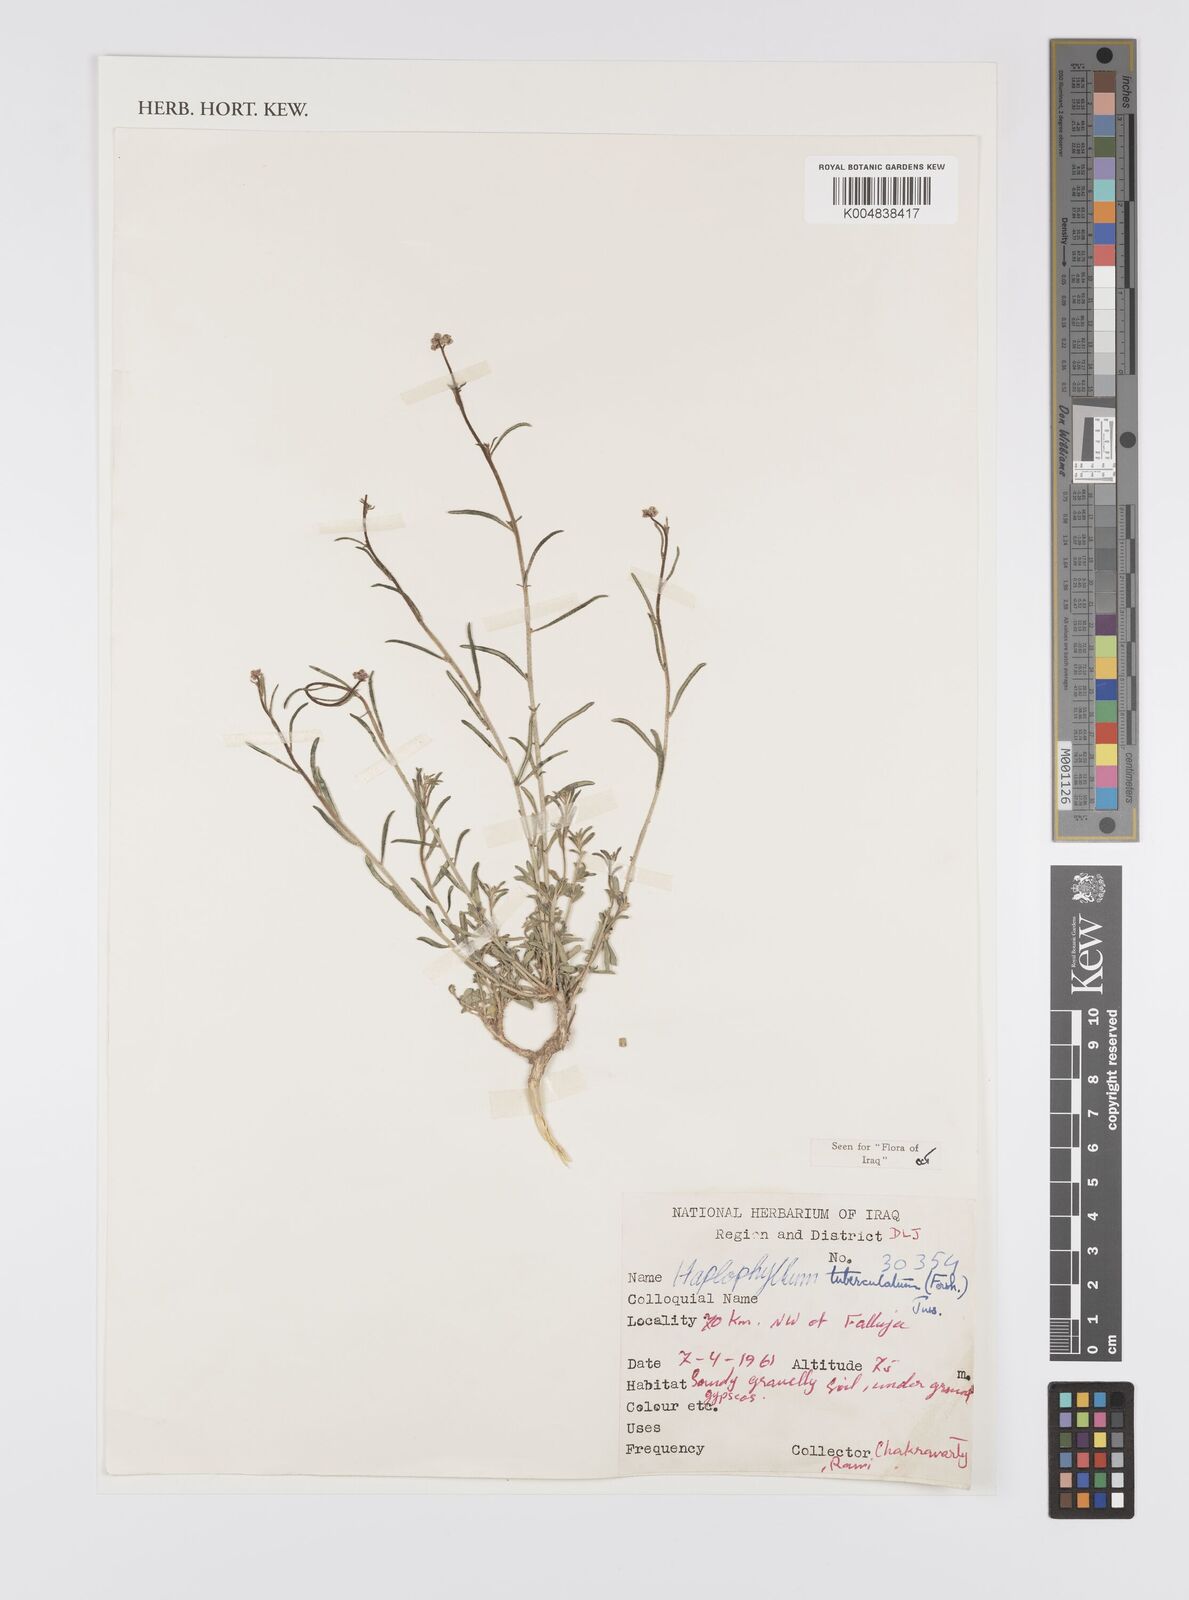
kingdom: Plantae
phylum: Tracheophyta
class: Magnoliopsida
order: Sapindales
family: Rutaceae
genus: Haplophyllum
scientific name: Haplophyllum tuberculatum
